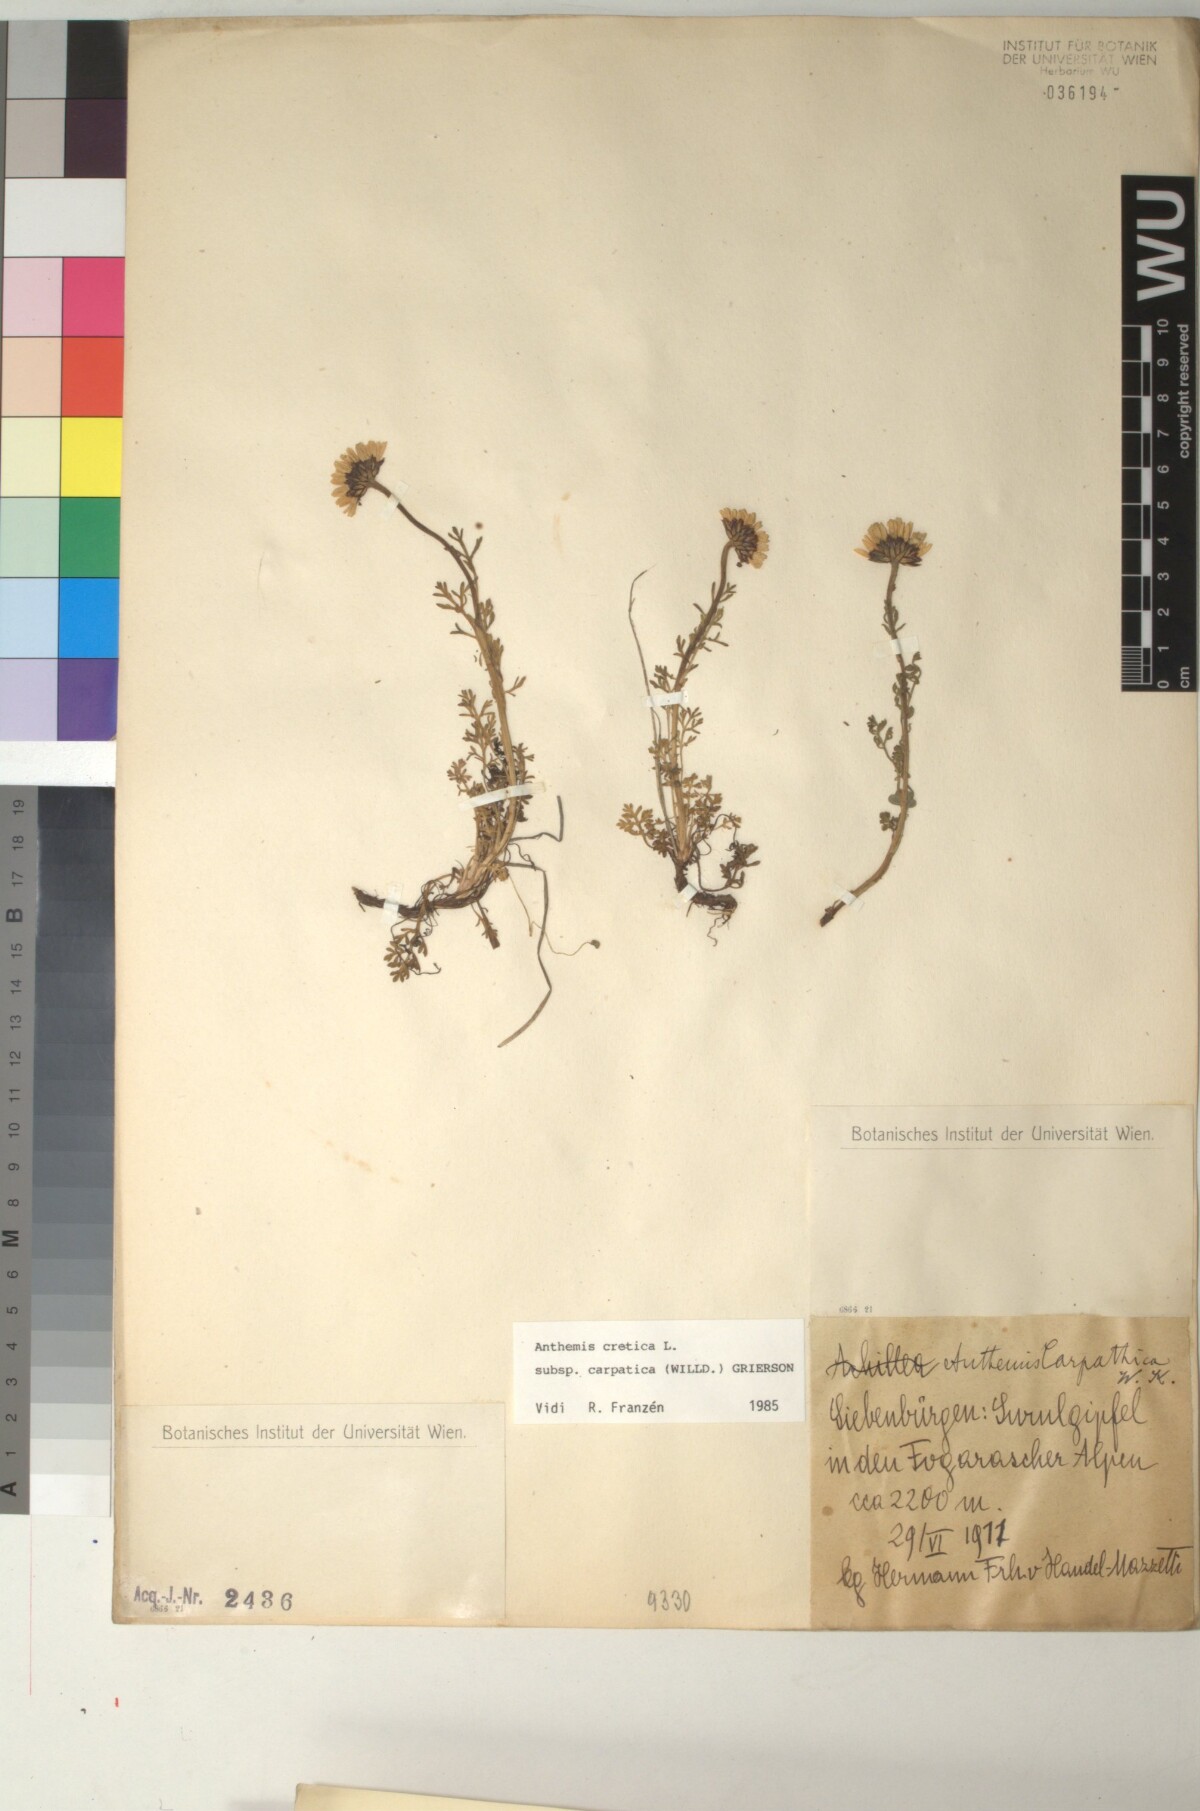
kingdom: Plantae
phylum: Tracheophyta
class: Magnoliopsida
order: Asterales
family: Asteraceae
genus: Anthemis
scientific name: Anthemis cretica
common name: Mountain dog-daisy
